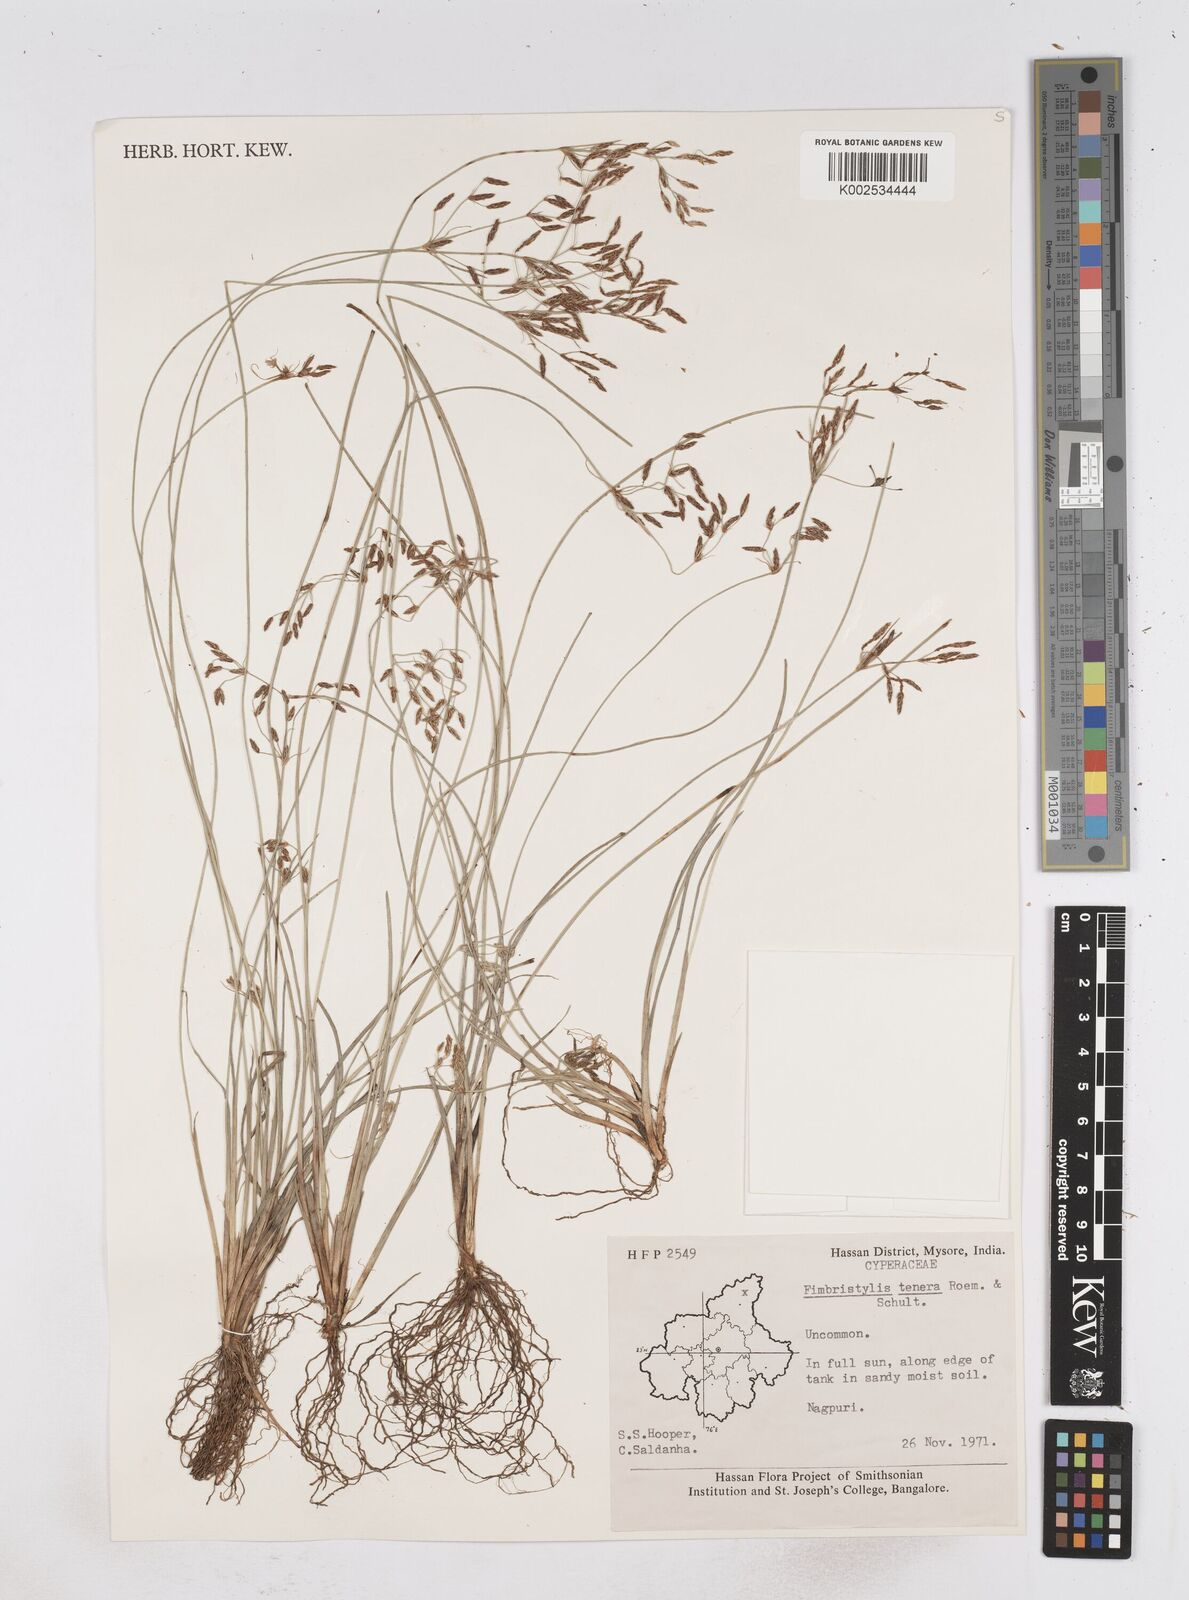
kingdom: Plantae
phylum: Tracheophyta
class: Liliopsida
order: Poales
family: Cyperaceae
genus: Fimbristylis
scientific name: Fimbristylis tenera
